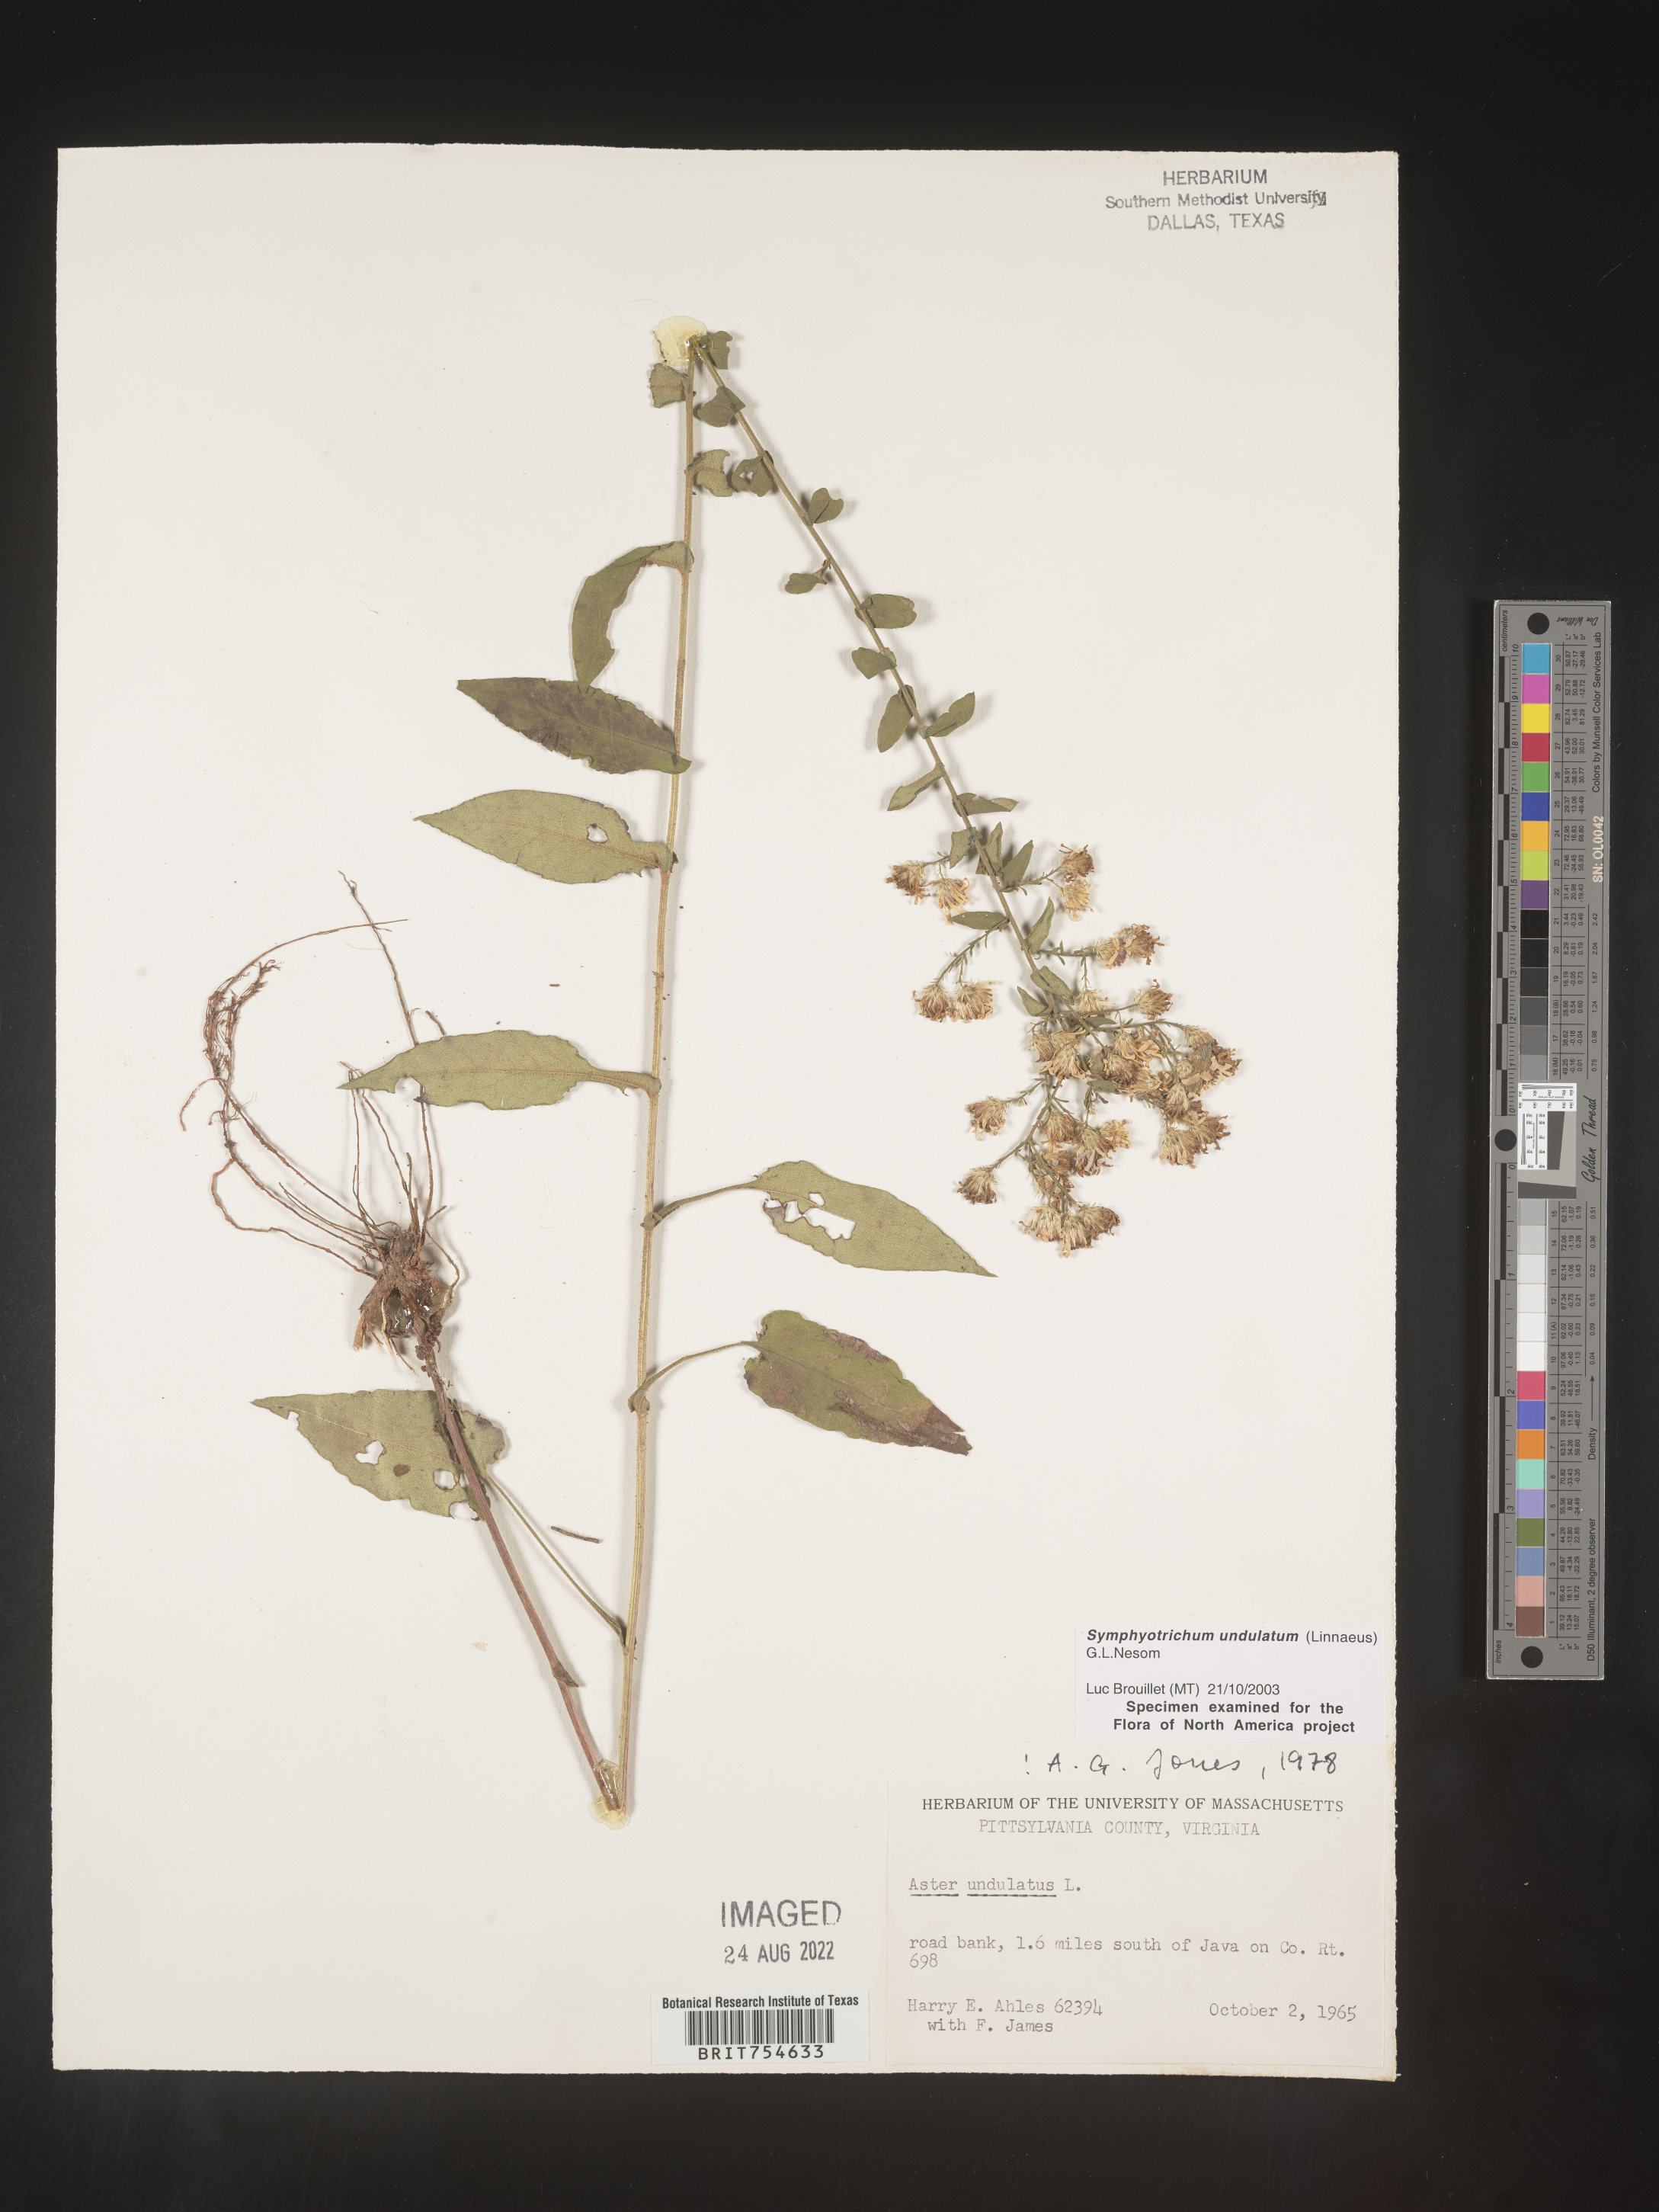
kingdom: Plantae
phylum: Tracheophyta
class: Magnoliopsida
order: Asterales
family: Asteraceae
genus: Symphyotrichum
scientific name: Symphyotrichum undulatum
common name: Clasping heart-leaf aster
